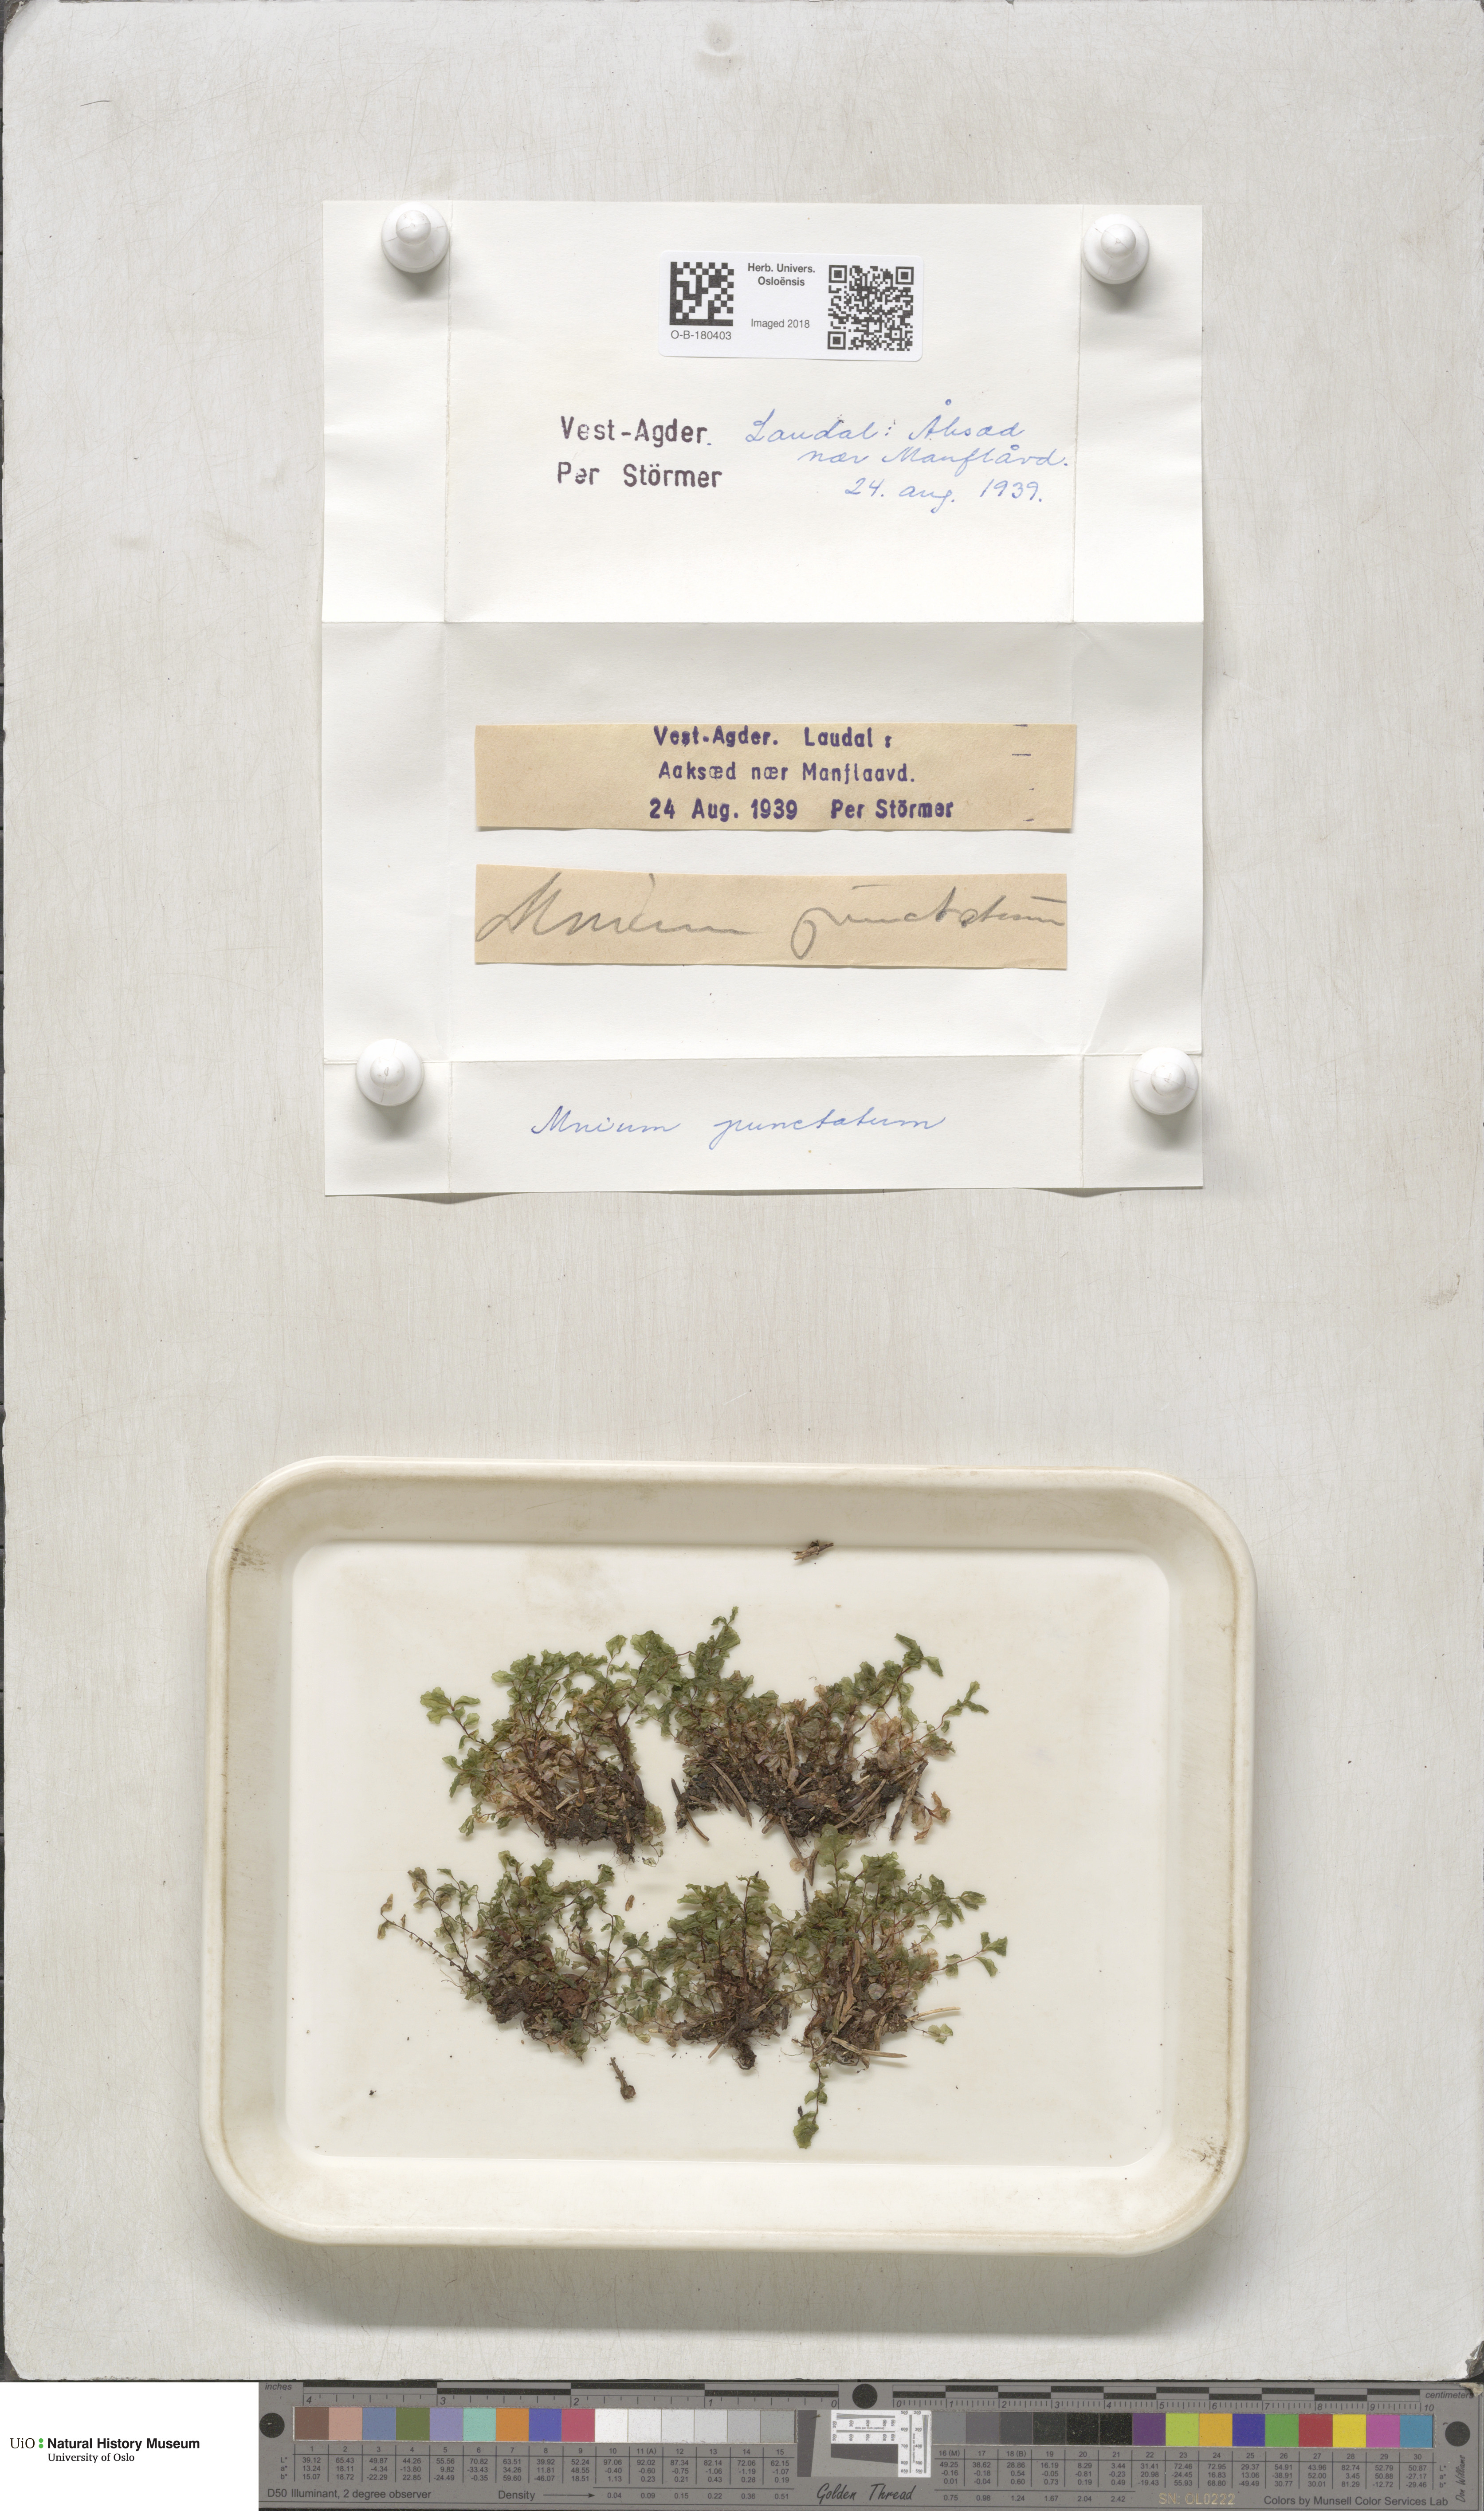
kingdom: Plantae
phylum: Bryophyta
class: Bryopsida
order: Bryales
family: Mniaceae
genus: Rhizomnium
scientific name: Rhizomnium punctatum
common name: Dotted leafy moss
